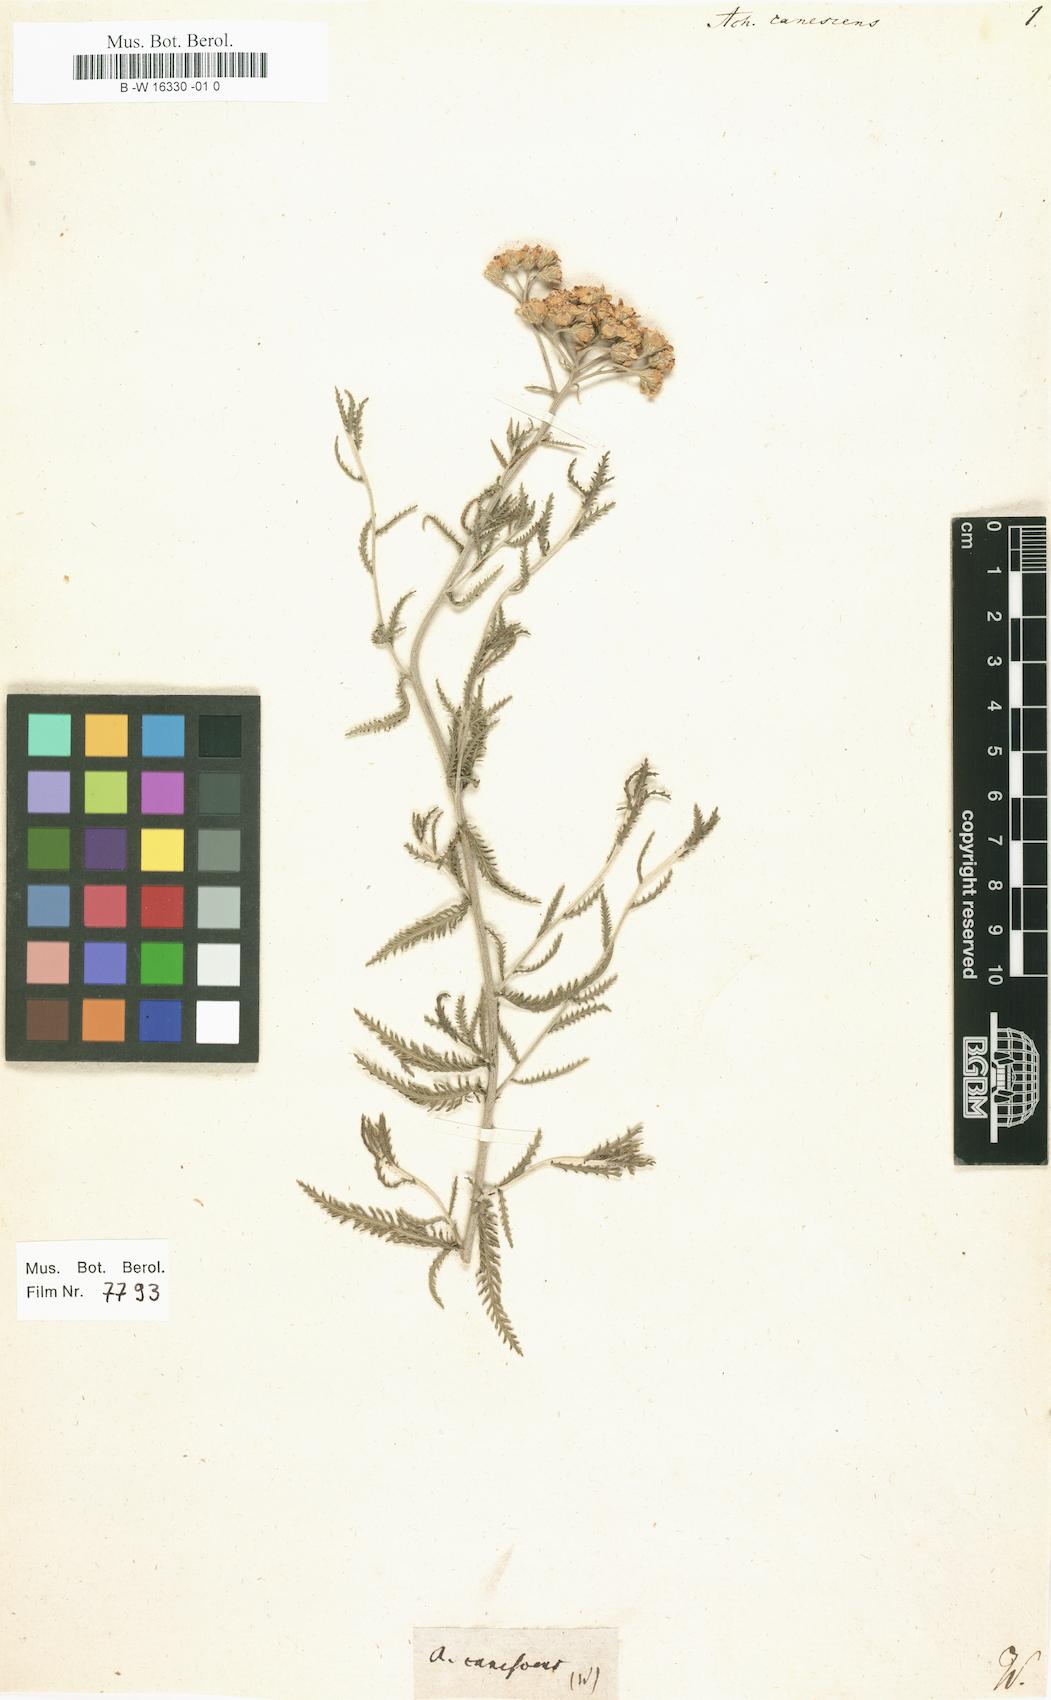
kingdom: Plantae
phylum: Tracheophyta
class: Magnoliopsida
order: Asterales
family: Asteraceae
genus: Achillea
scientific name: Achillea fraasii
